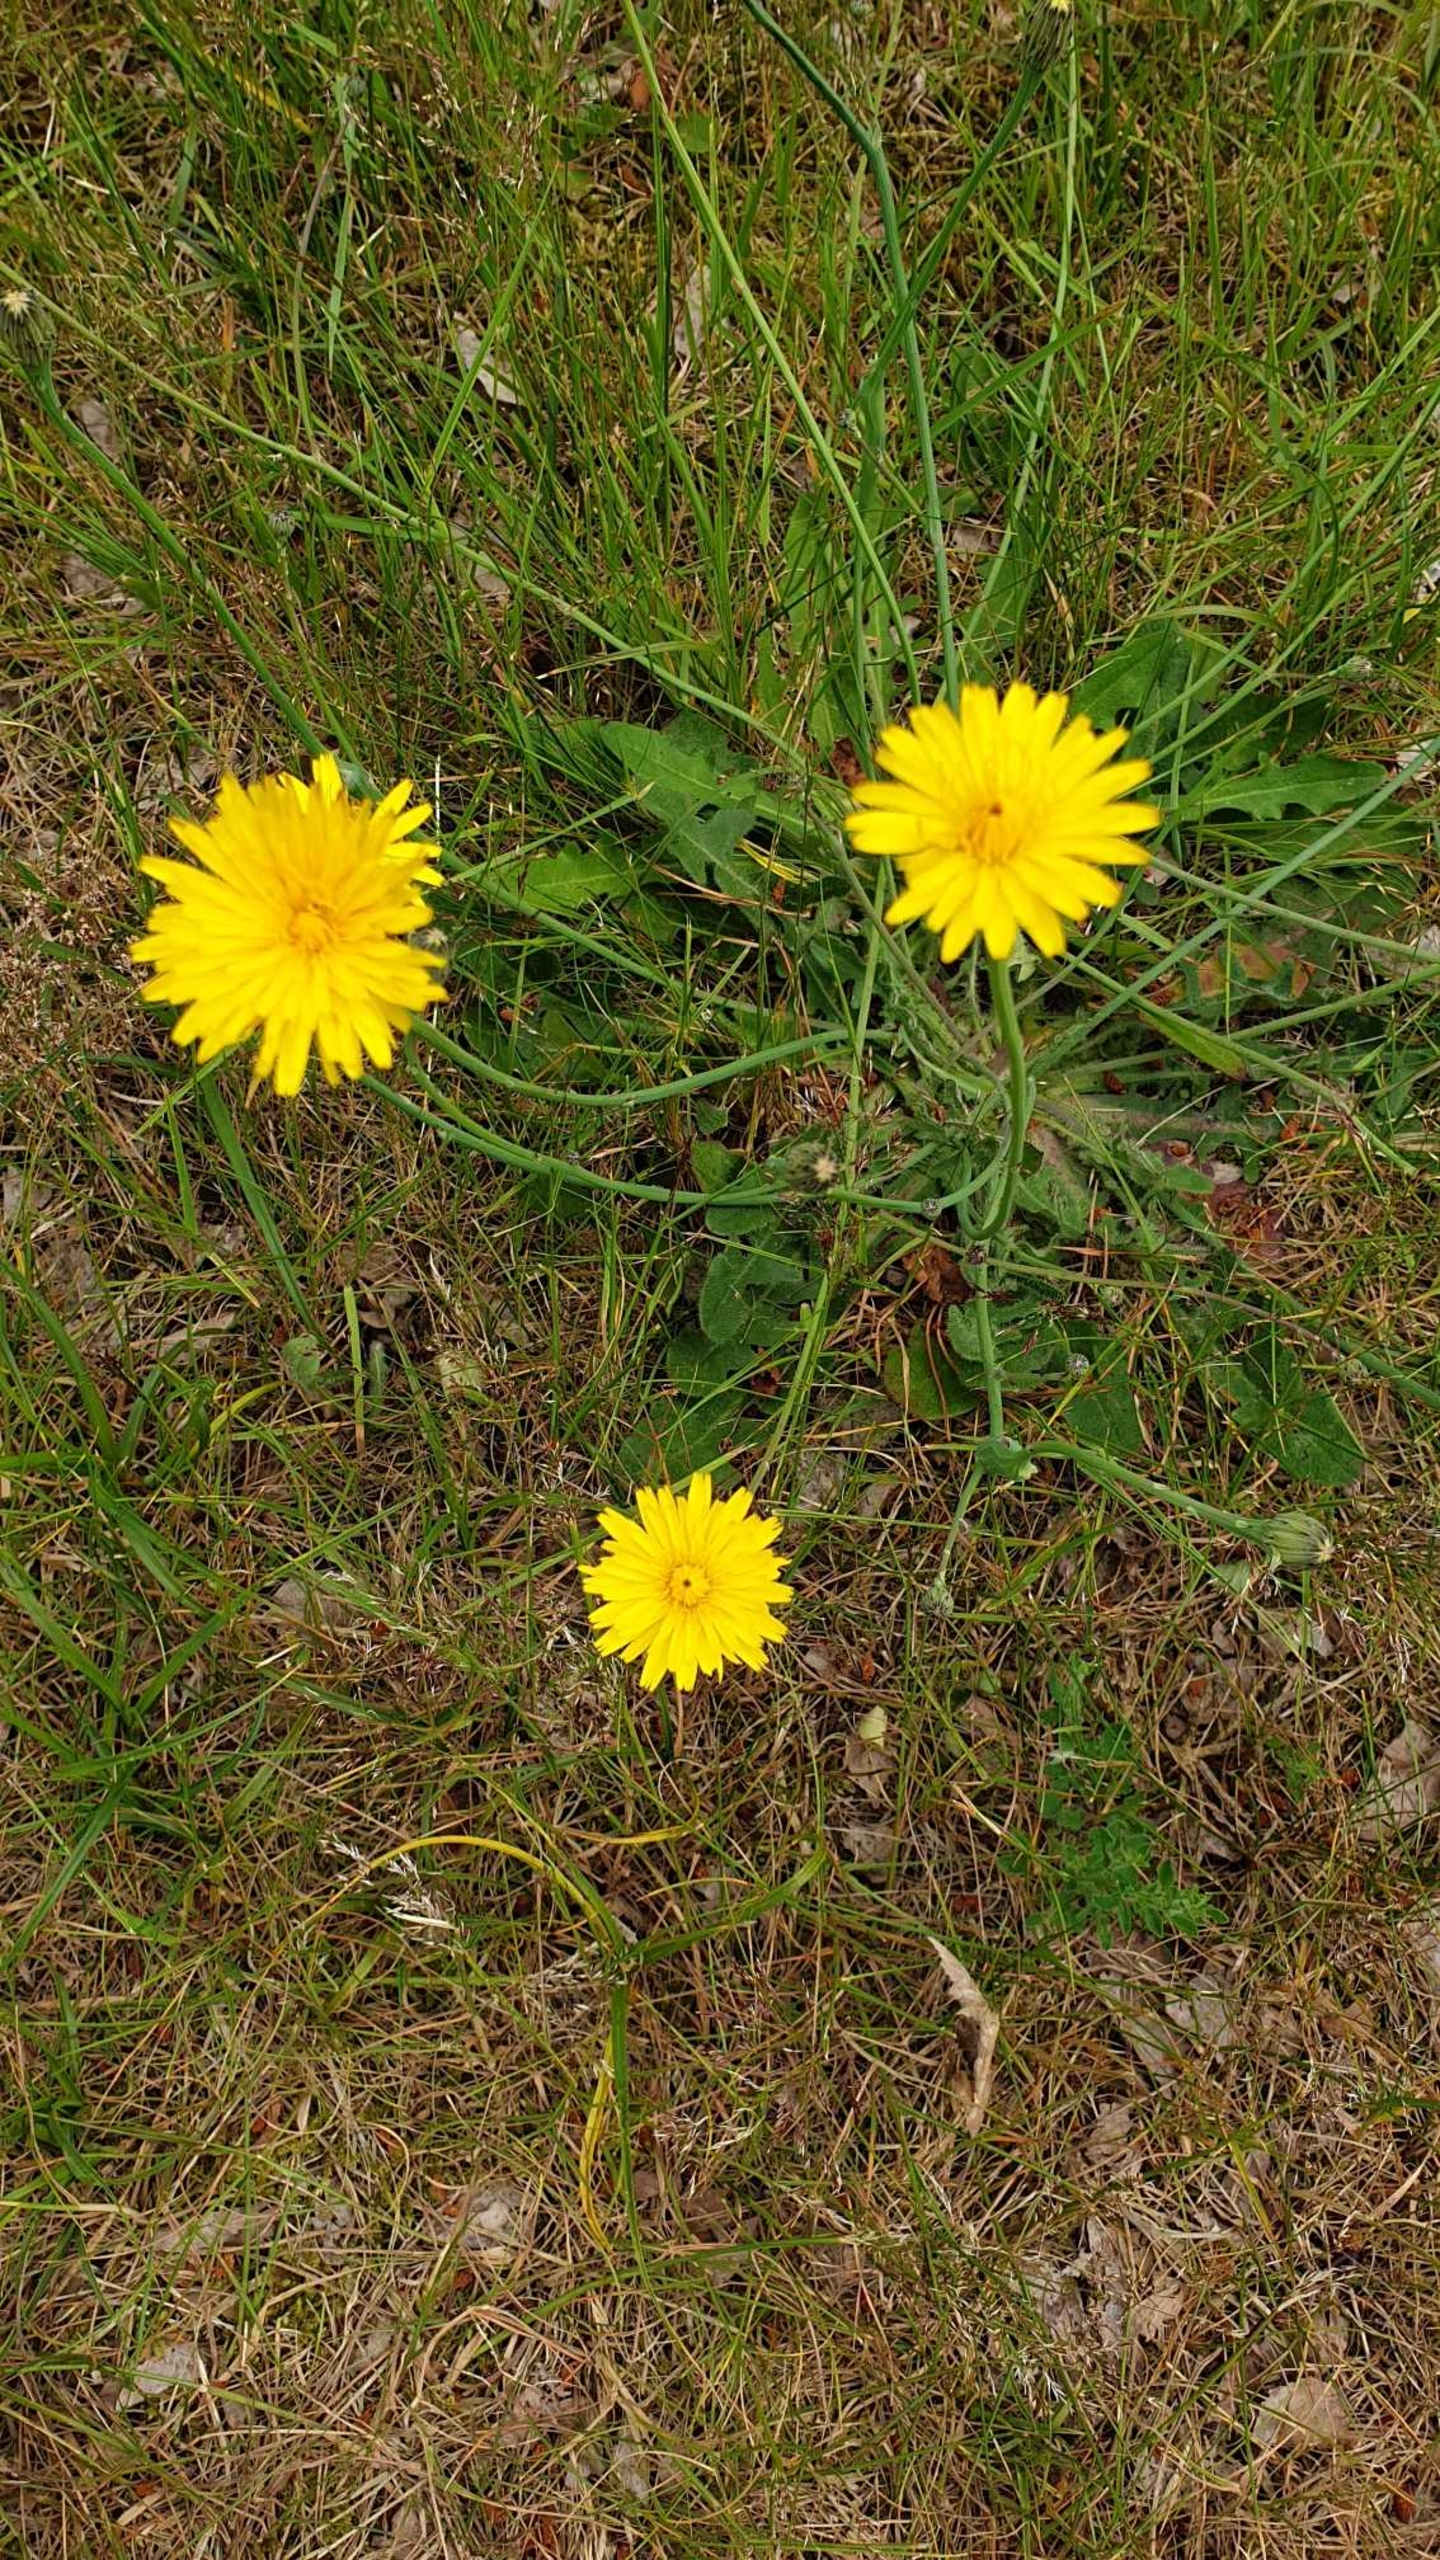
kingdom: Plantae
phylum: Tracheophyta
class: Magnoliopsida
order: Asterales
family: Asteraceae
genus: Hypochaeris
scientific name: Hypochaeris radicata
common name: Almindelig kongepen
